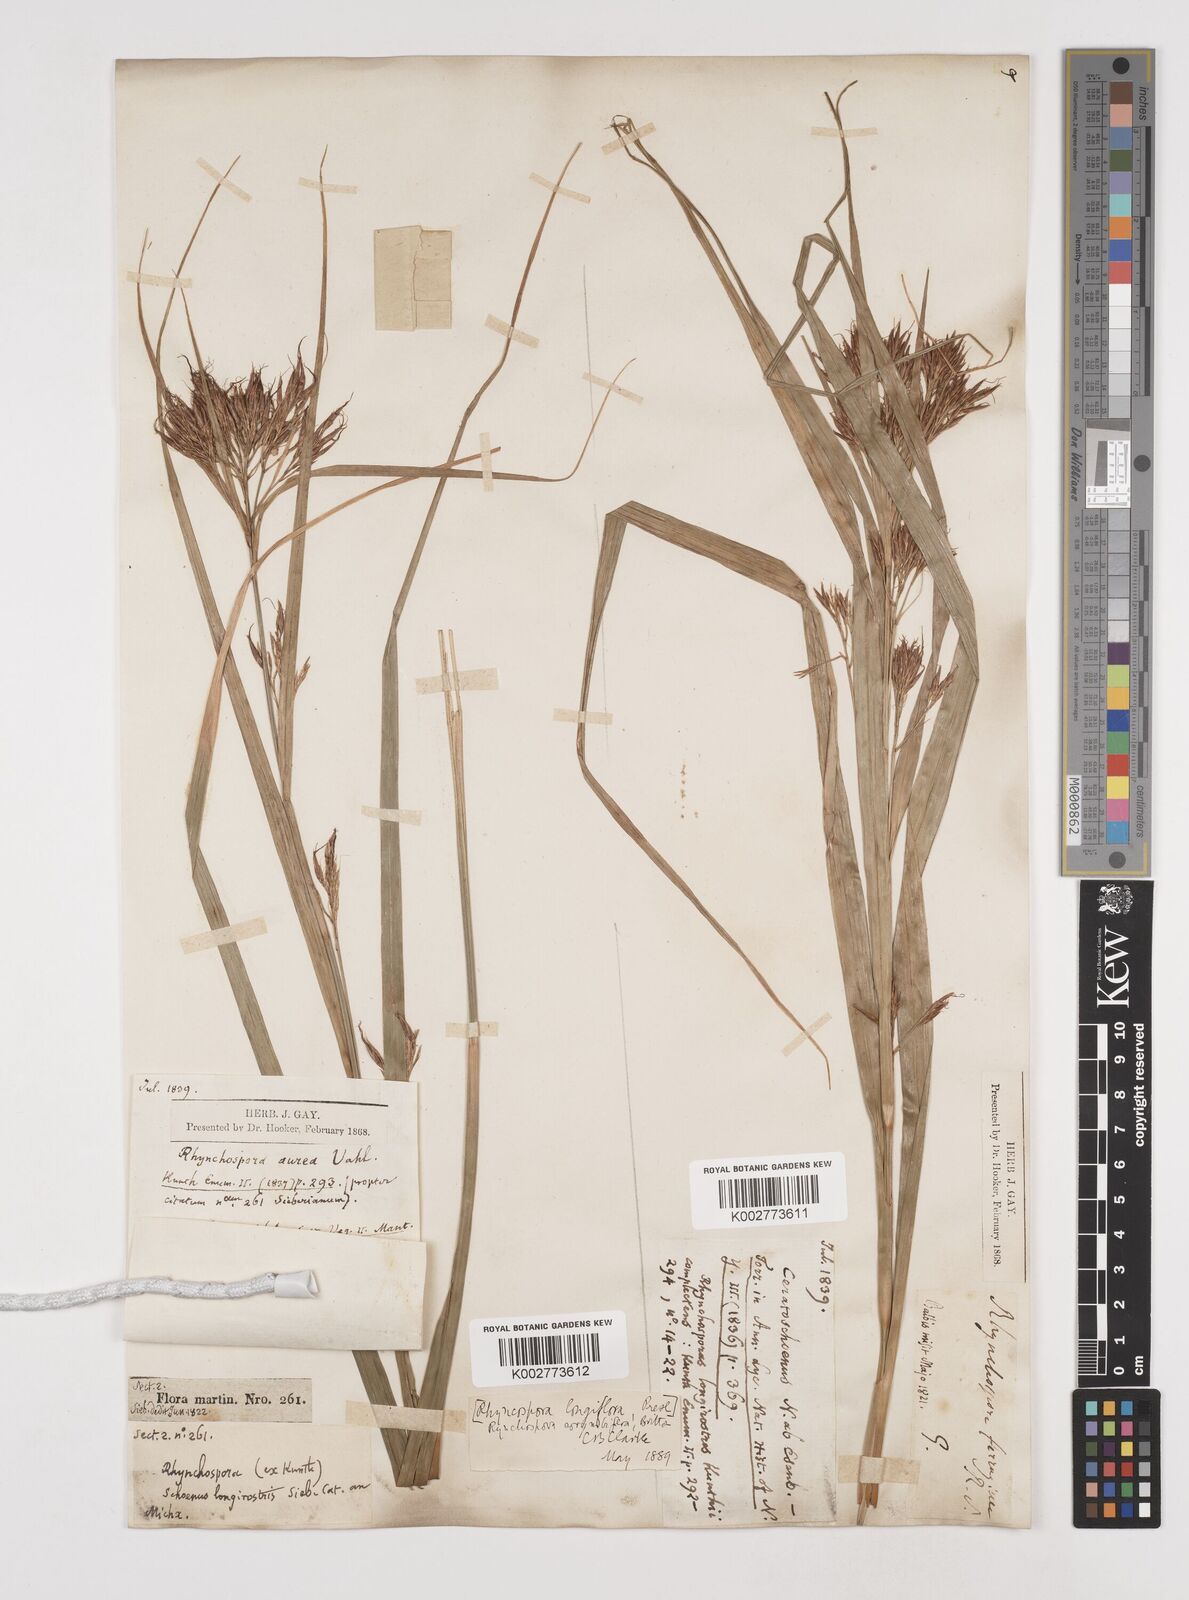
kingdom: Plantae
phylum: Tracheophyta
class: Liliopsida
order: Poales
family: Cyperaceae
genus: Rhynchospora
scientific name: Rhynchospora longiflora
